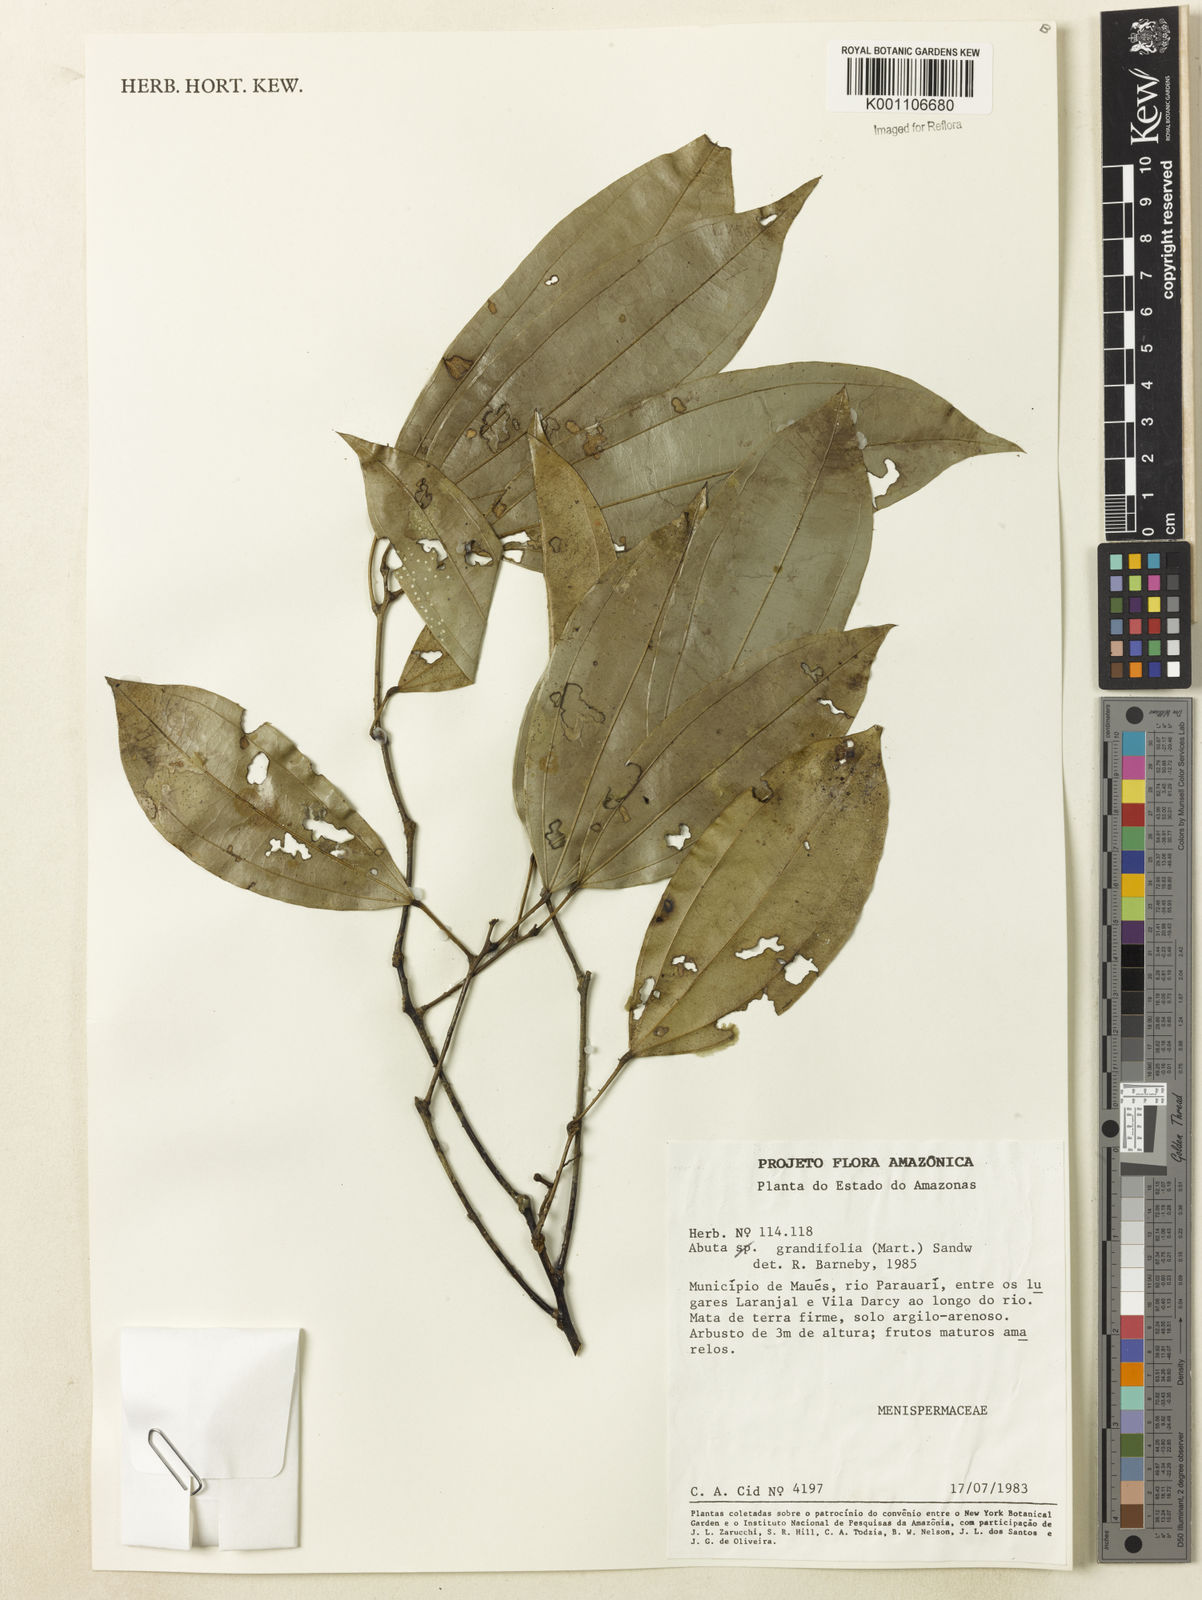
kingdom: Plantae
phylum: Tracheophyta
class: Magnoliopsida
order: Ranunculales
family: Menispermaceae
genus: Abuta
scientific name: Abuta grandifolia
